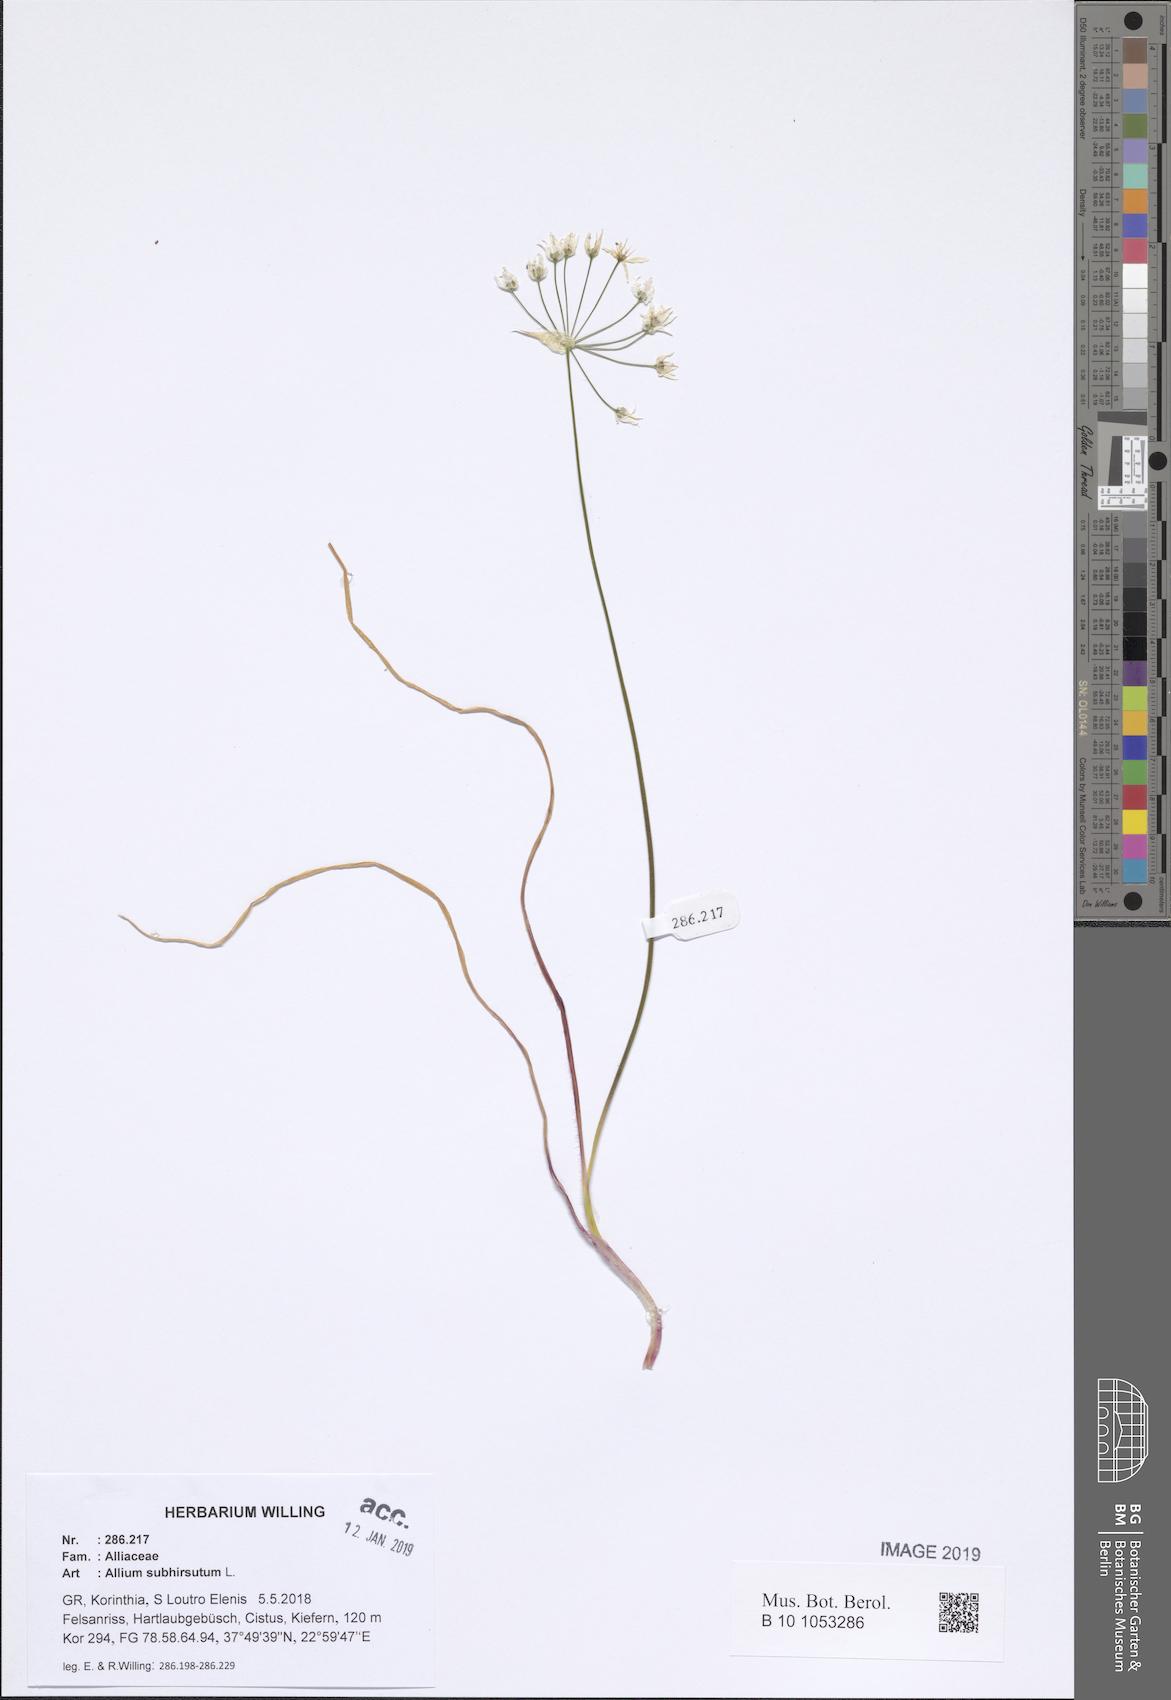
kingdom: Plantae
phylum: Tracheophyta
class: Liliopsida
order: Asparagales
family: Amaryllidaceae
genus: Allium
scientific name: Allium subhirsutum
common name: Hairy garlic
